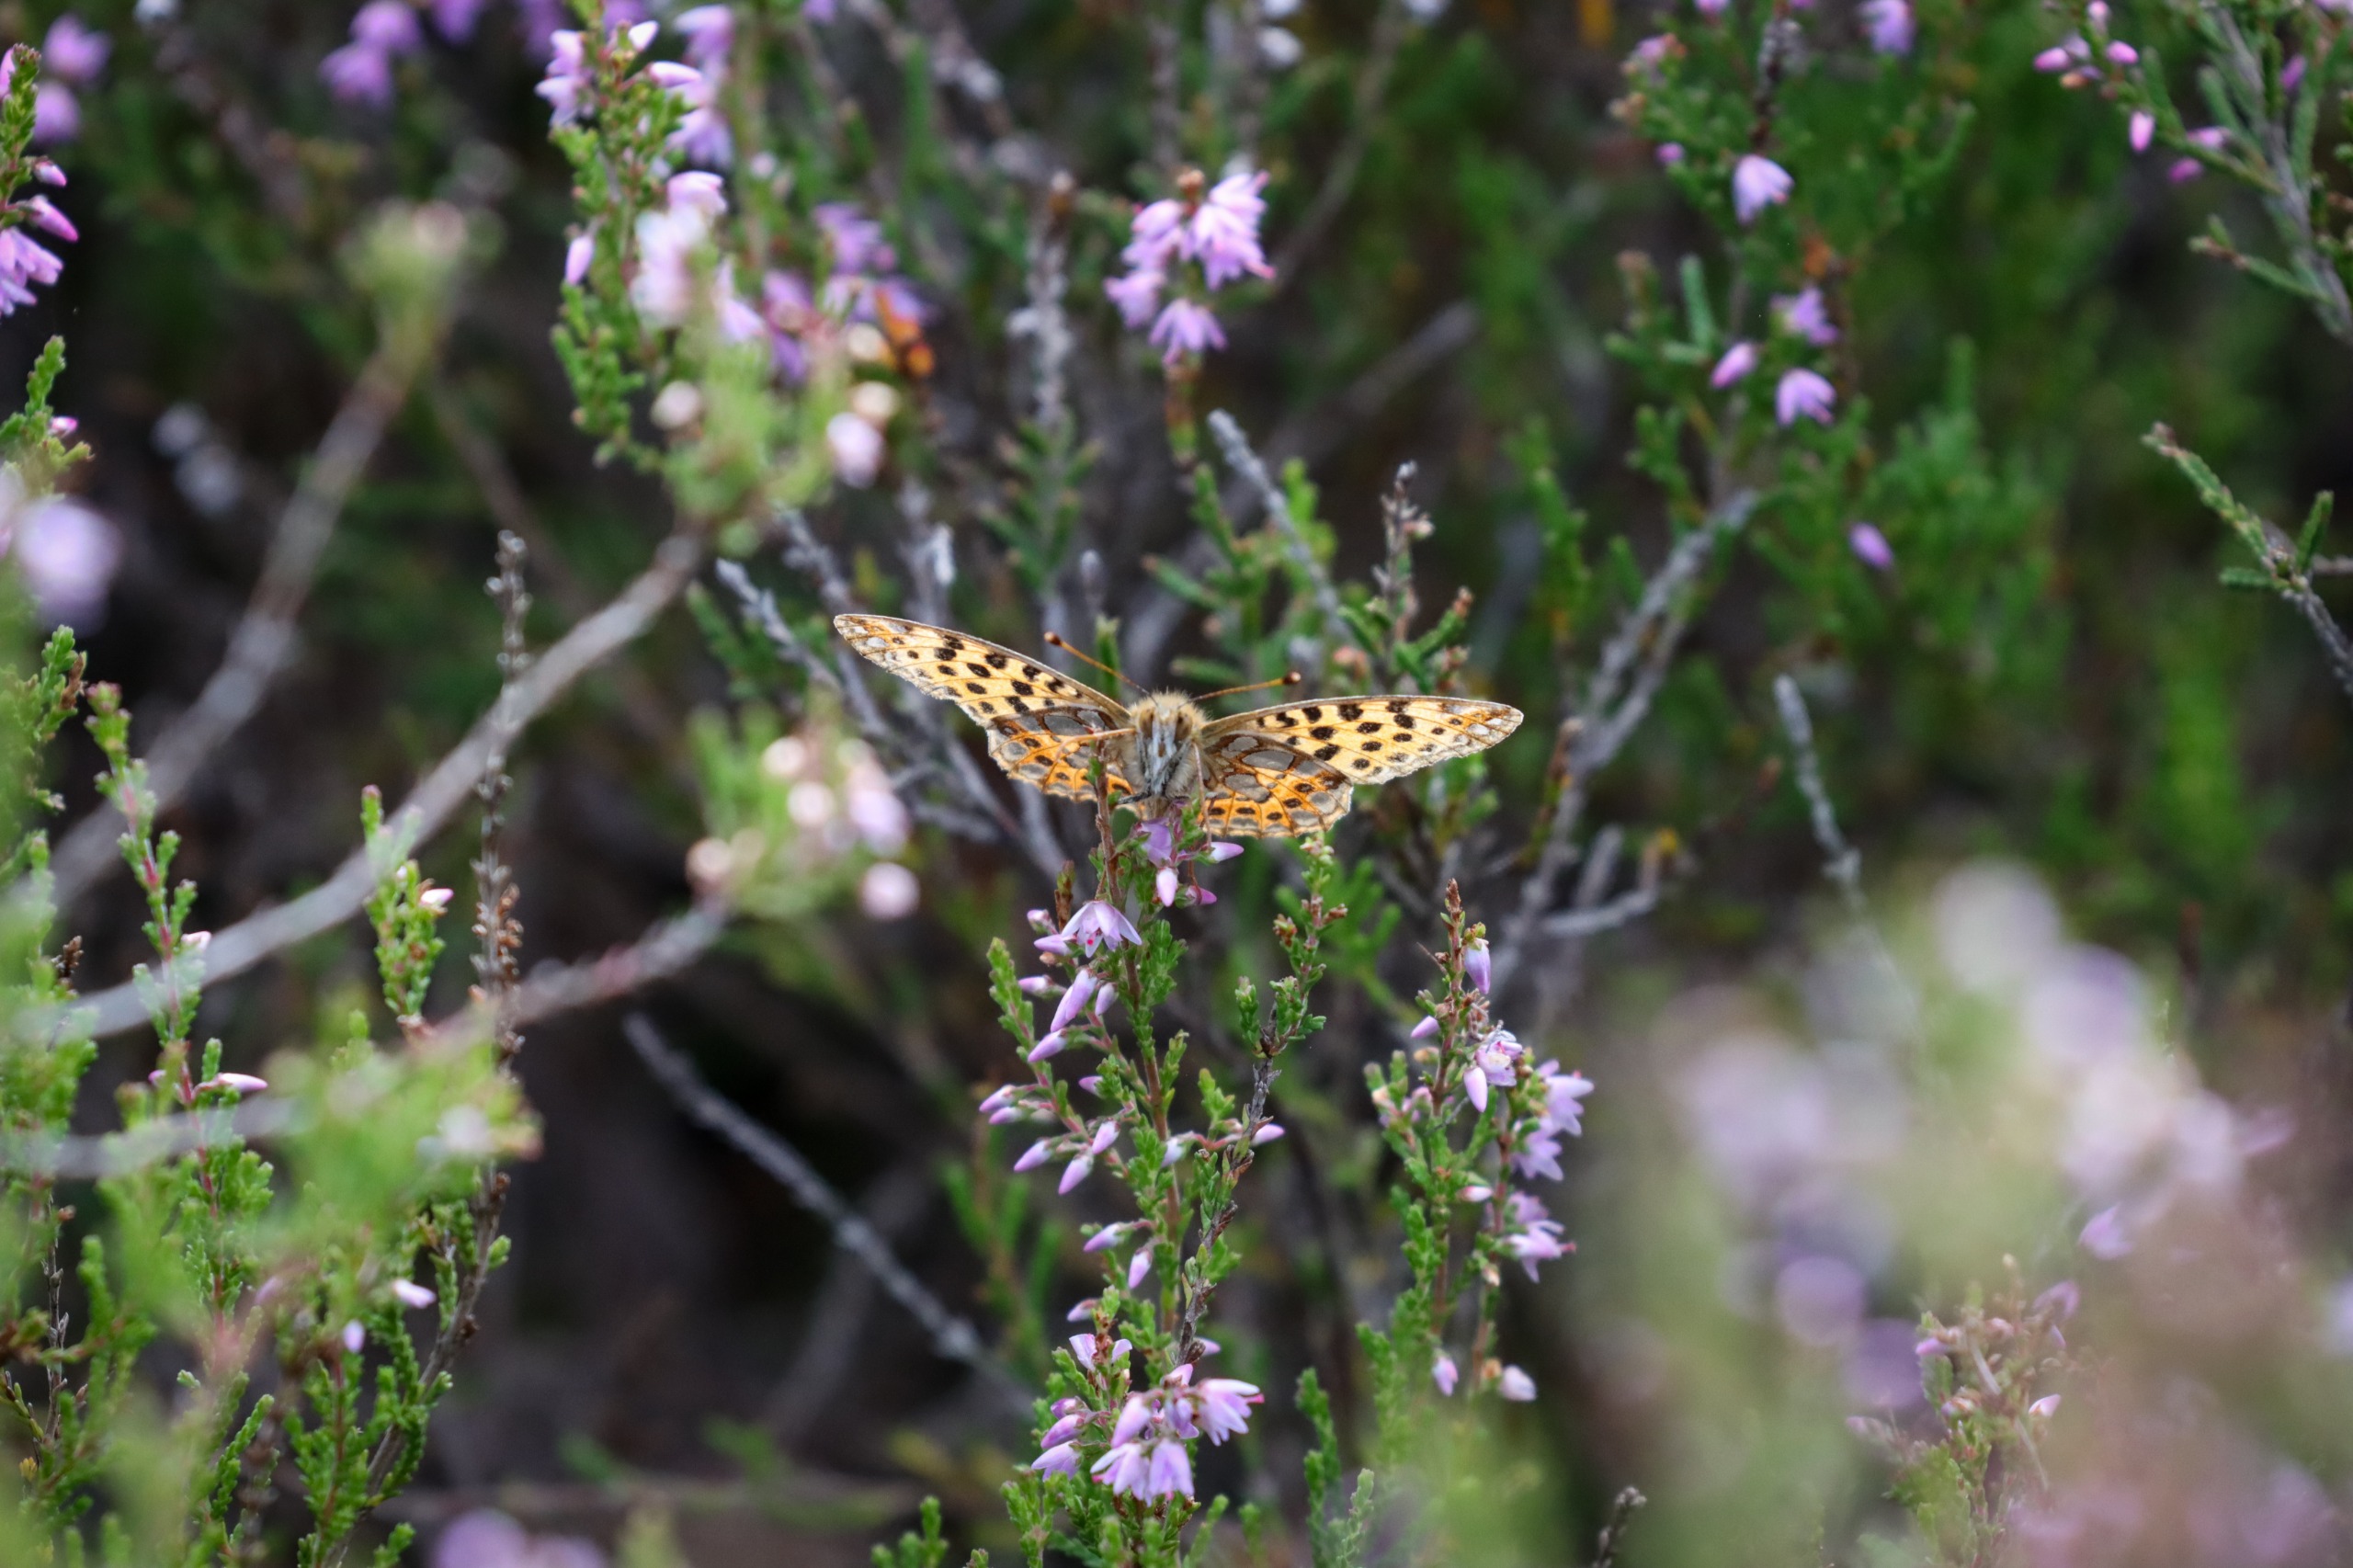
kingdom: Animalia
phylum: Arthropoda
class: Insecta
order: Lepidoptera
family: Nymphalidae
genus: Issoria
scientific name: Issoria lathonia
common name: Storplettet perlemorsommerfugl
